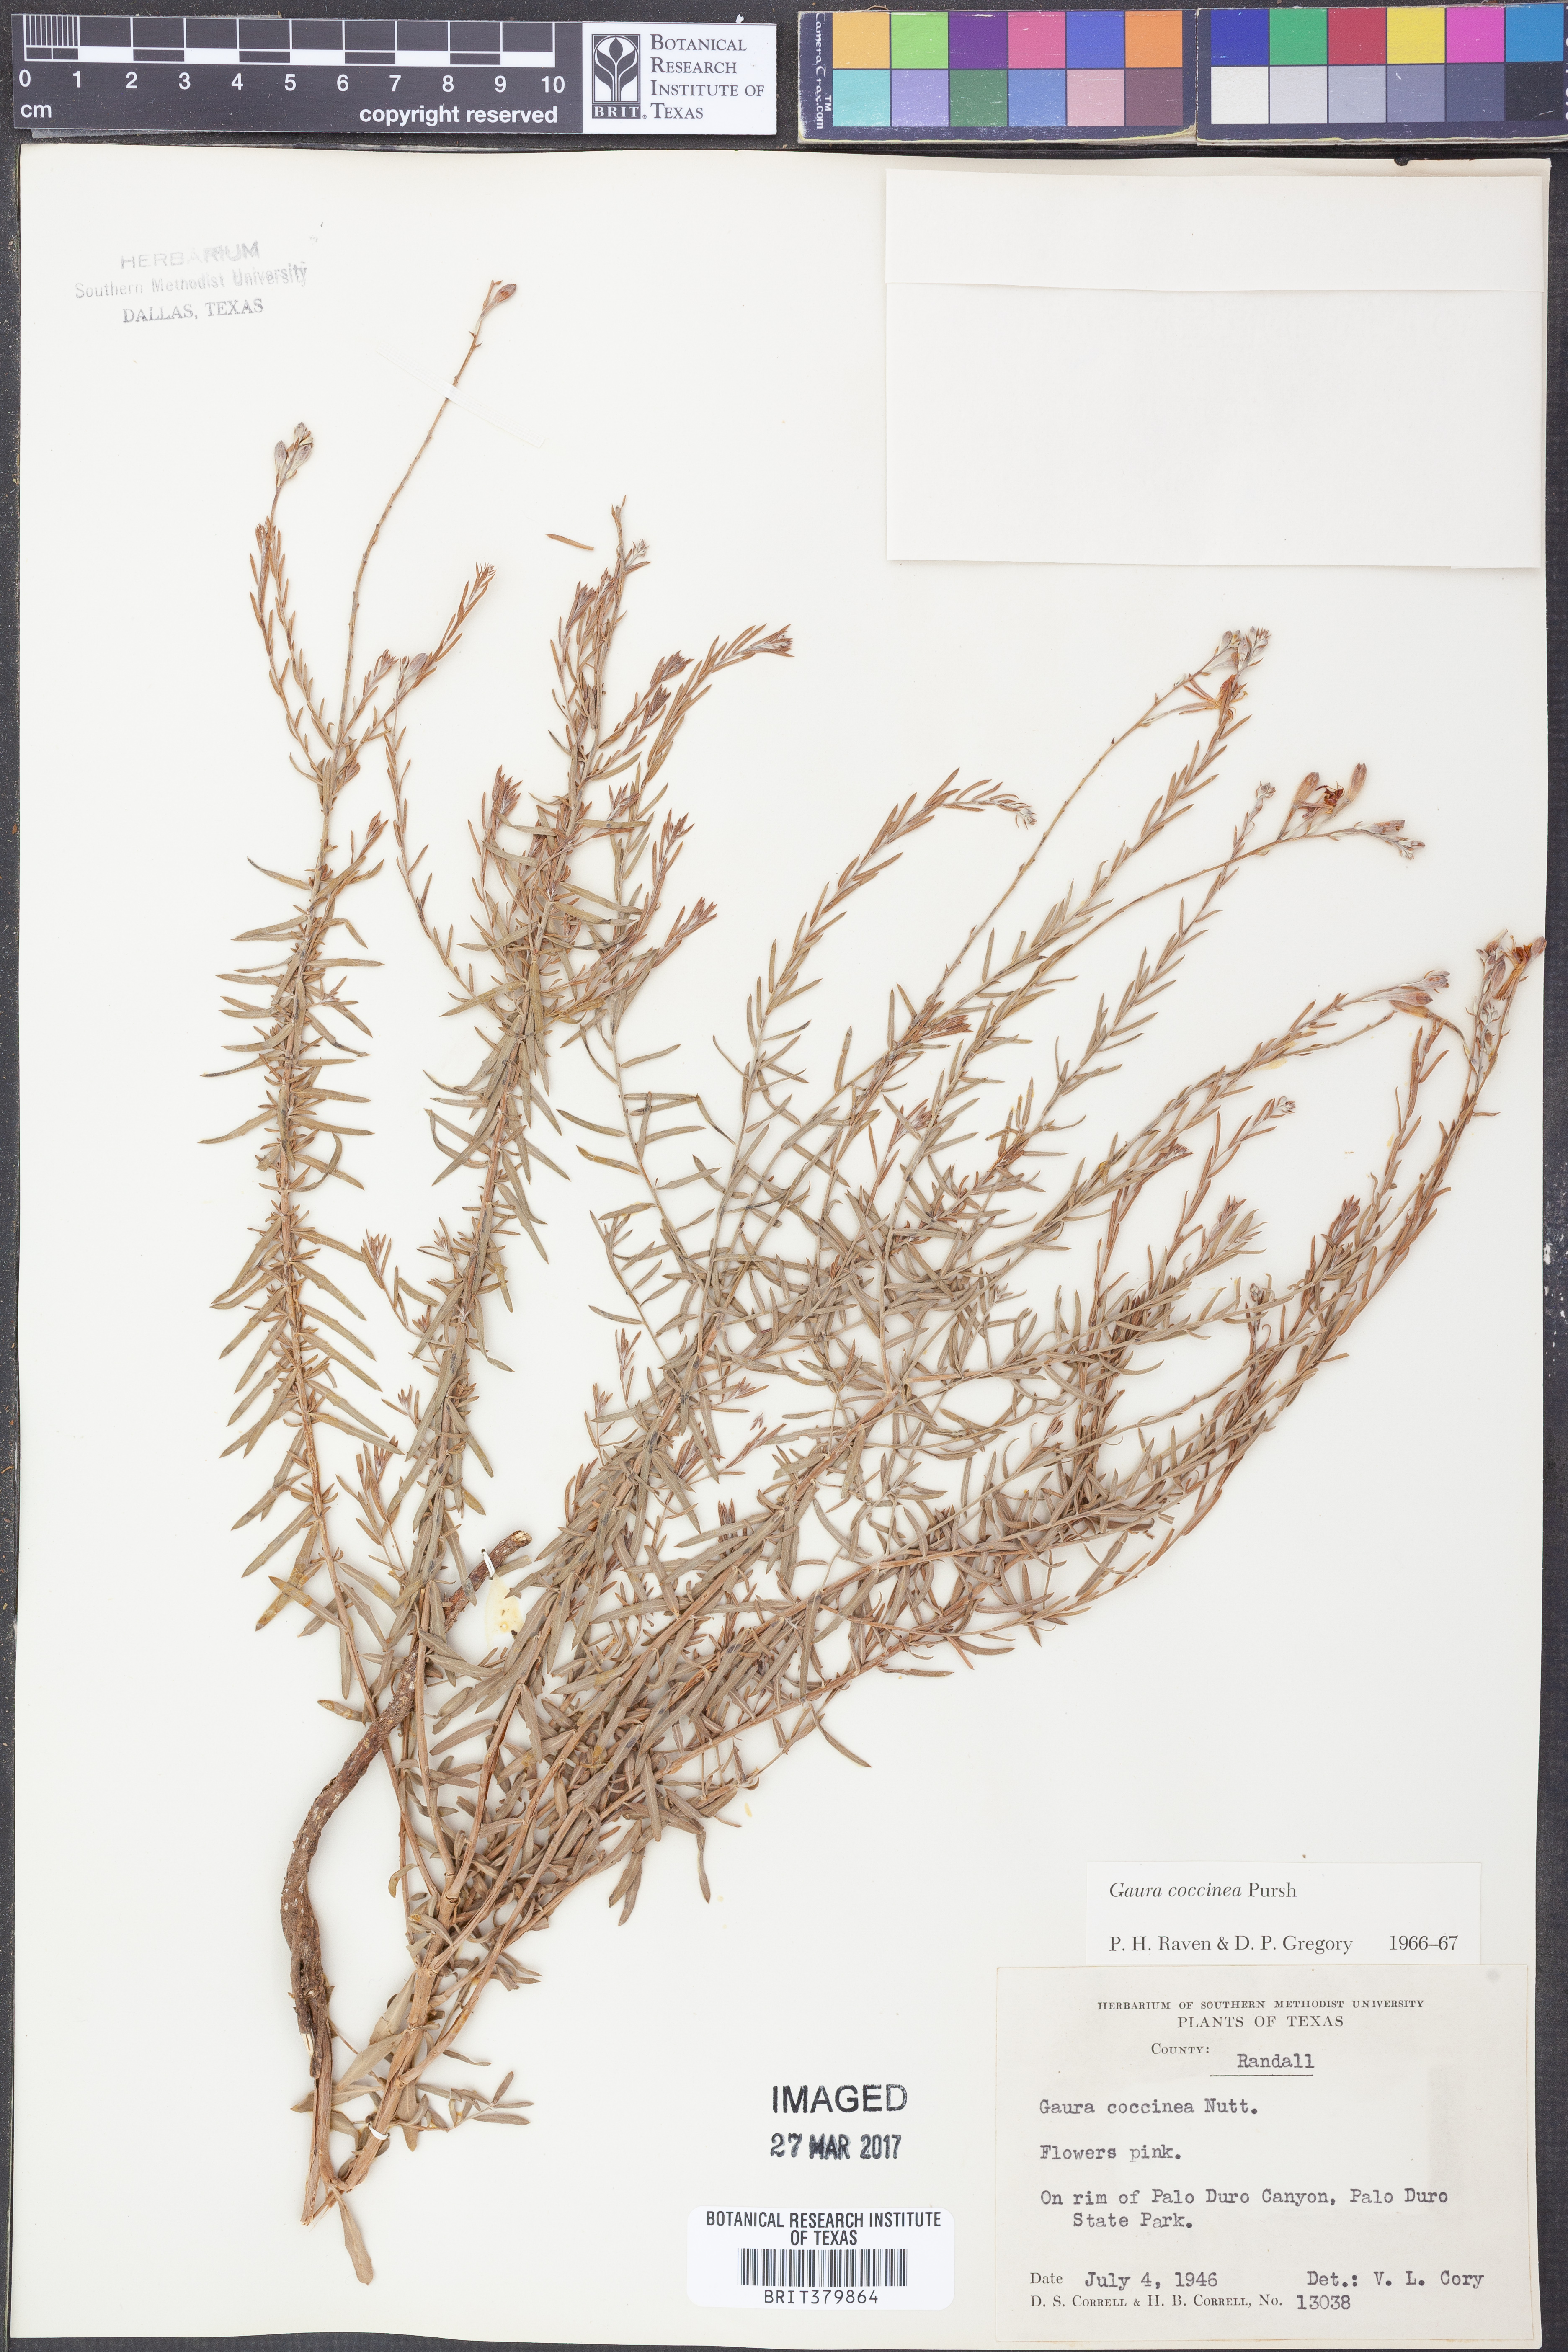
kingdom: Plantae
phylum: Tracheophyta
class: Magnoliopsida
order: Myrtales
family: Onagraceae
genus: Oenothera
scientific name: Oenothera suffrutescens
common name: Scarlet beeblossom
